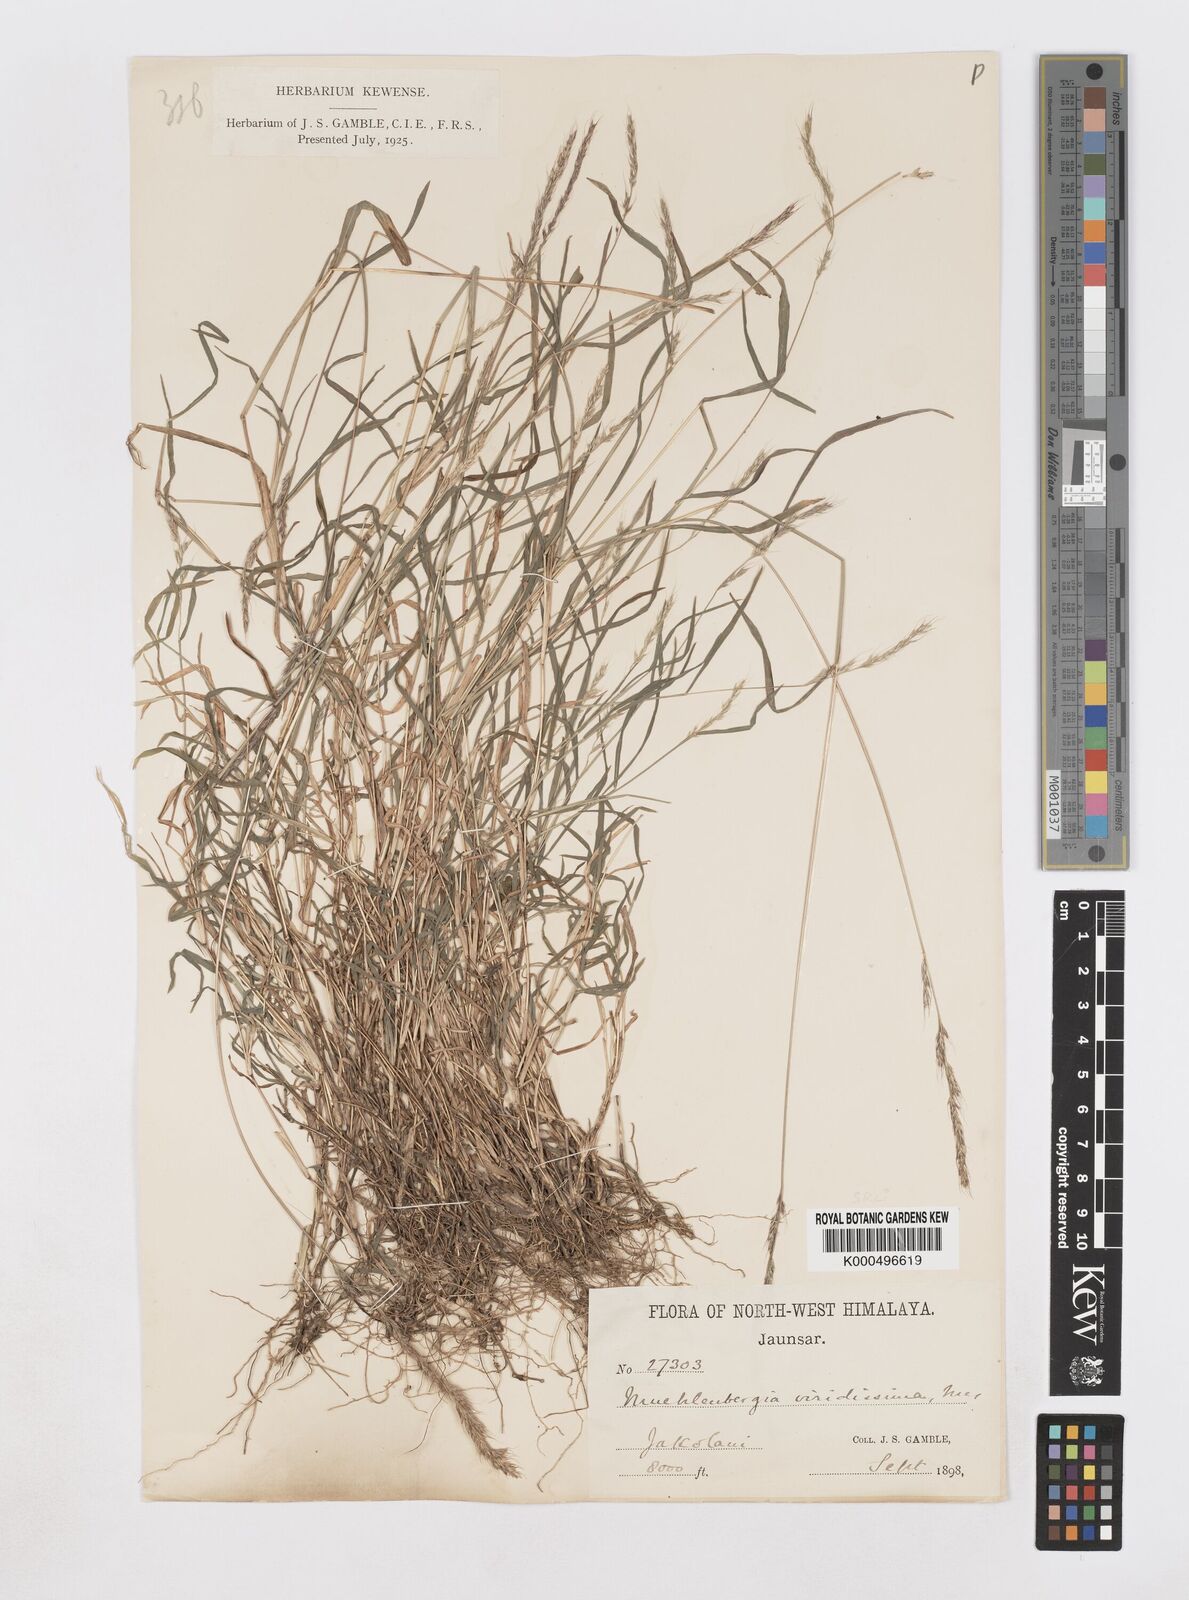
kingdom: Plantae
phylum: Tracheophyta
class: Liliopsida
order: Poales
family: Poaceae
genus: Muhlenbergia
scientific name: Muhlenbergia duthieana
